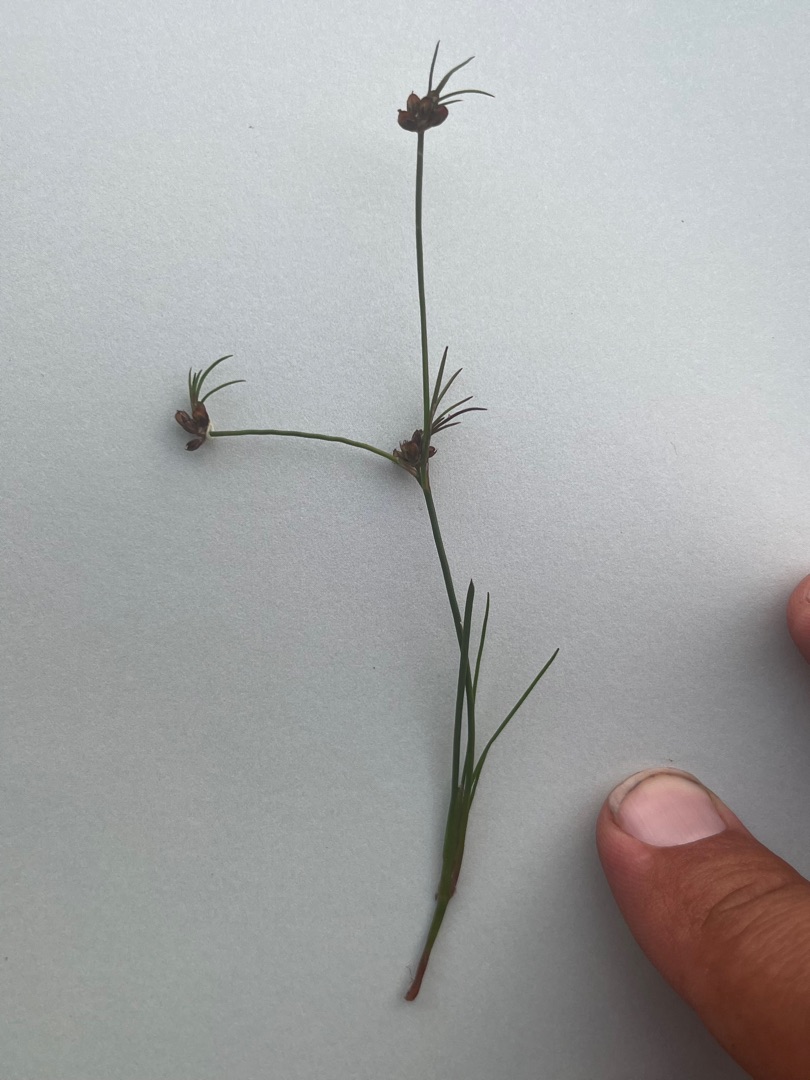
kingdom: Plantae
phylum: Tracheophyta
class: Liliopsida
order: Poales
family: Juncaceae
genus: Juncus
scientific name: Juncus bulbosus
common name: Liden siv
